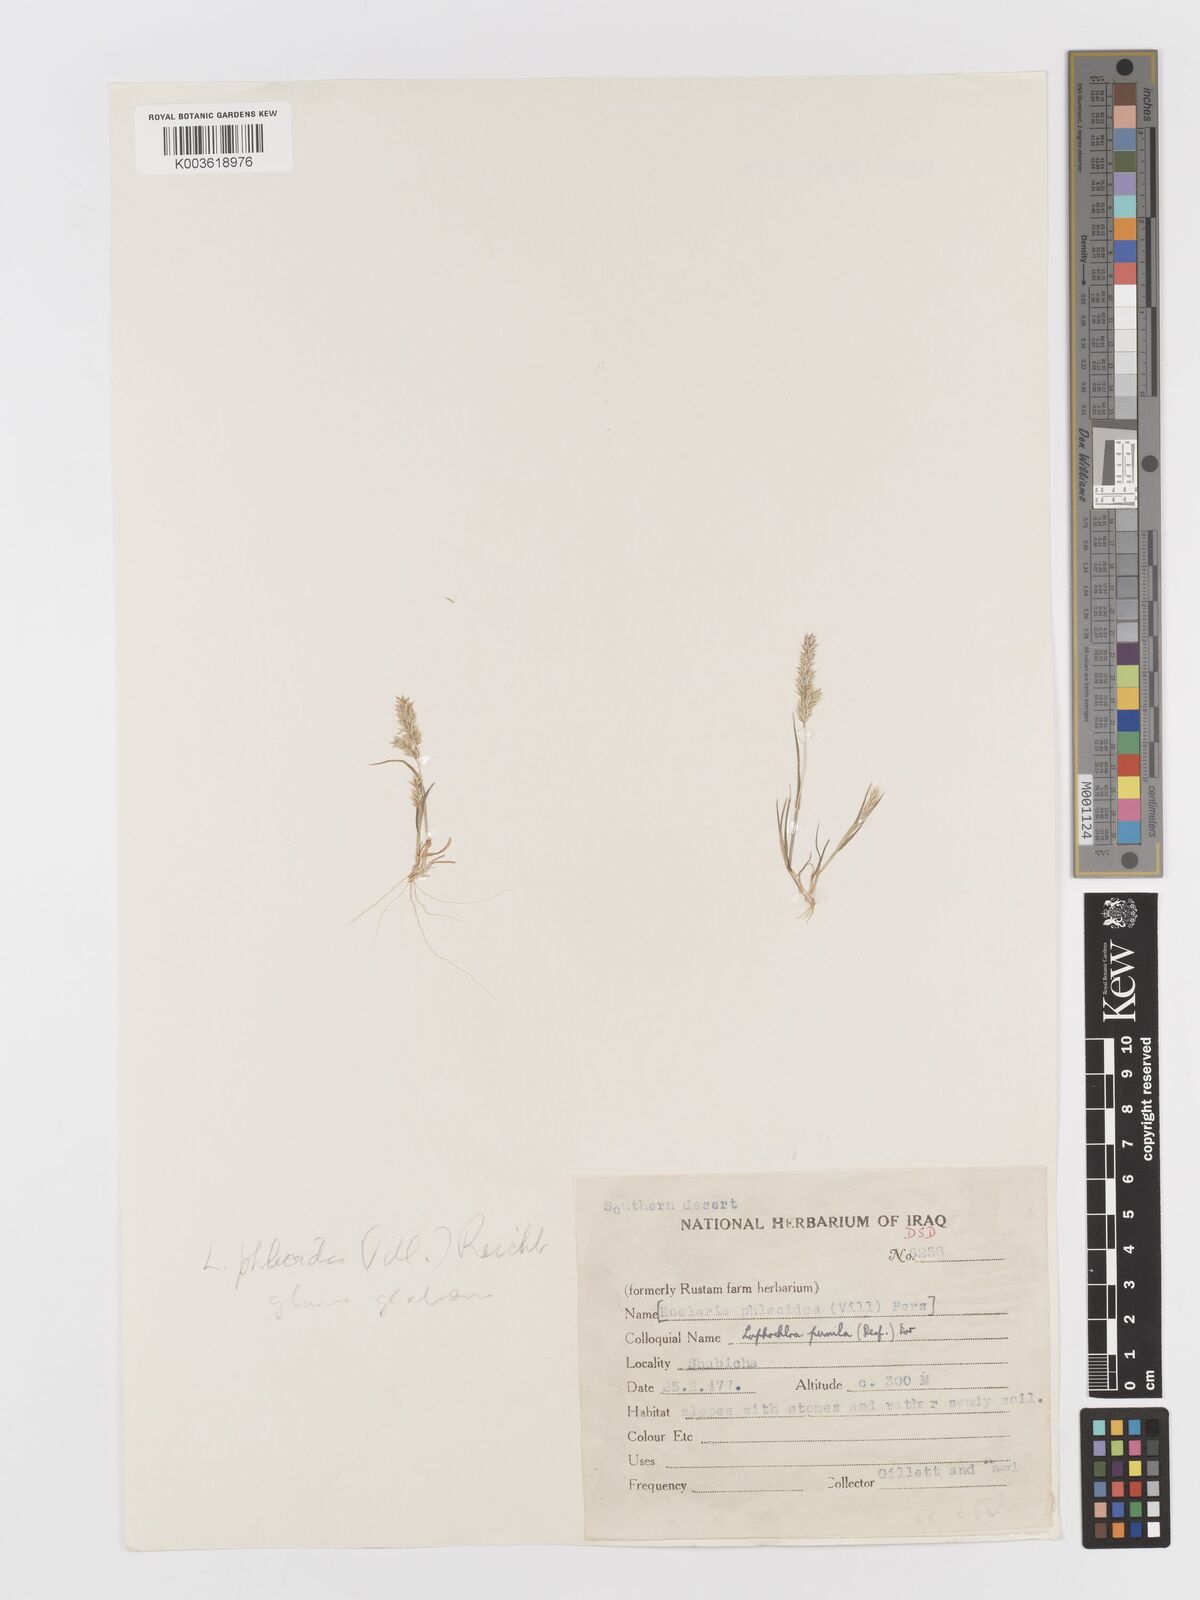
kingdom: Plantae
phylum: Tracheophyta
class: Liliopsida
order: Poales
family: Poaceae
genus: Rostraria
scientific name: Rostraria cristata
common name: Mediterranean hair-grass
